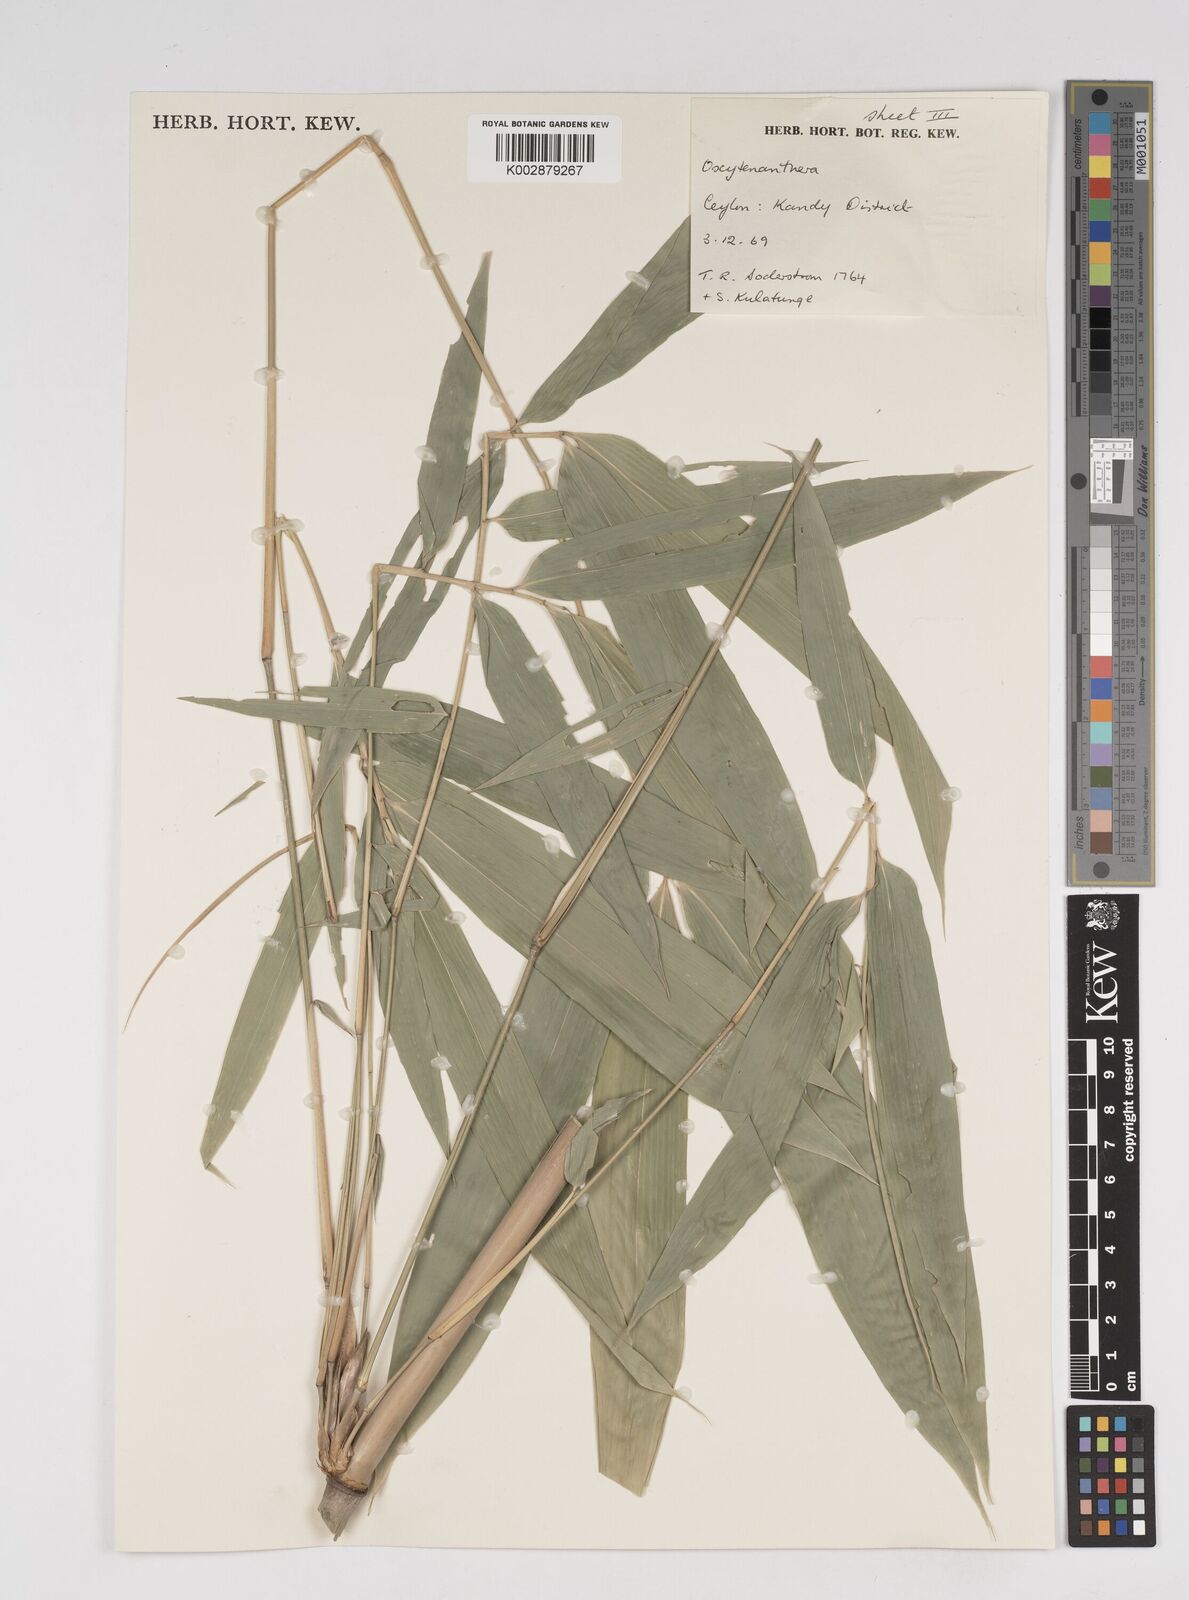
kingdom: Plantae
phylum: Tracheophyta
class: Liliopsida
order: Poales
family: Poaceae
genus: Dendrocalamus
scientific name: Dendrocalamus
